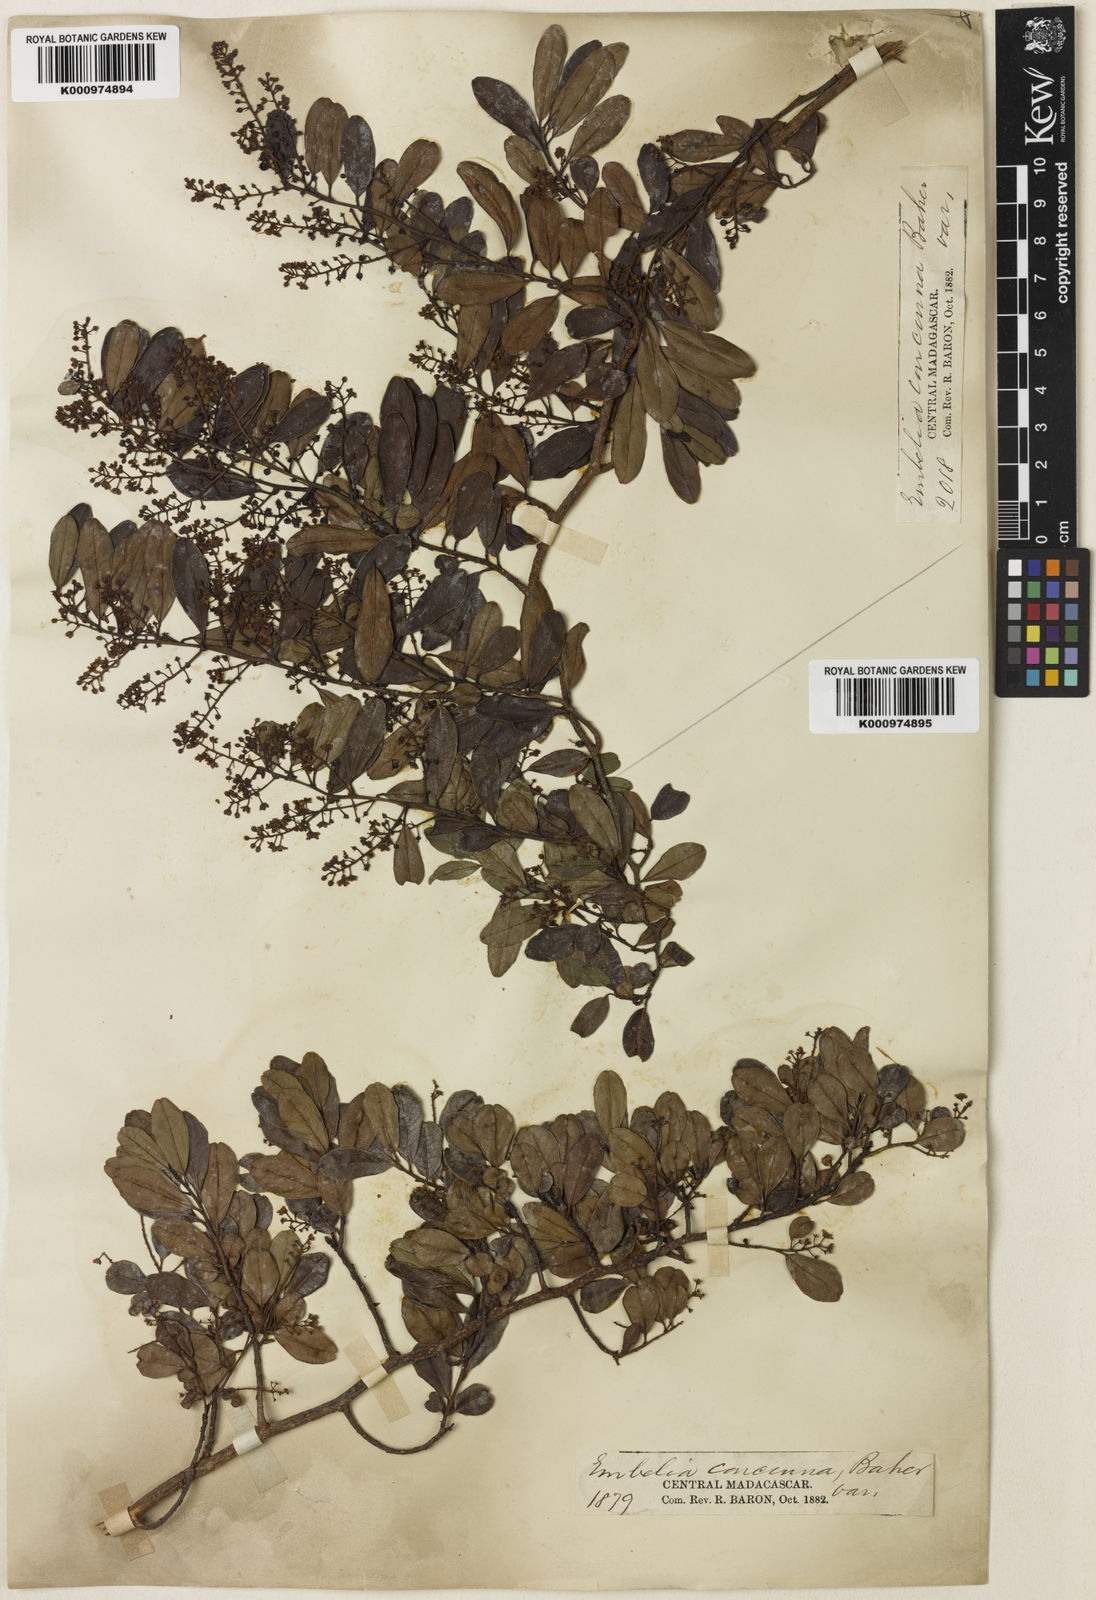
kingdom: Plantae
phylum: Tracheophyta
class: Magnoliopsida
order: Ericales
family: Primulaceae
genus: Embelia
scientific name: Embelia concinna
